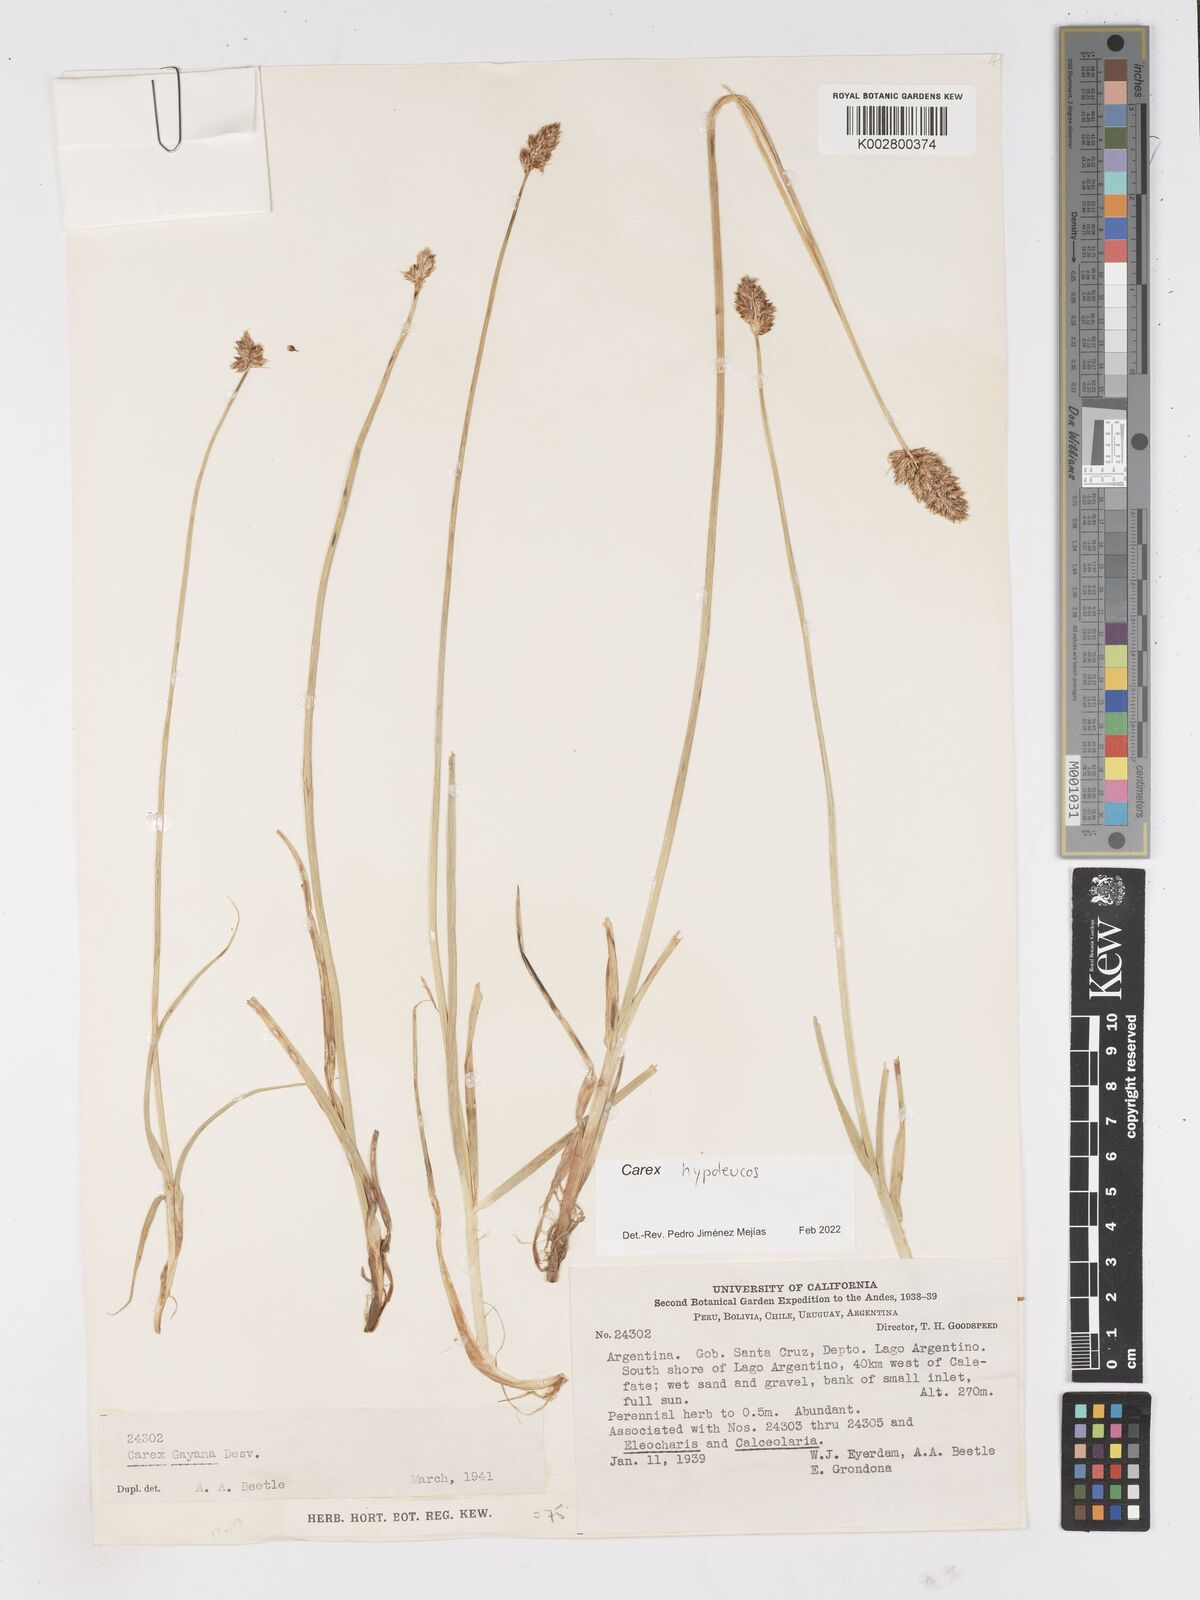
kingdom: Plantae
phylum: Tracheophyta
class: Liliopsida
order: Poales
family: Cyperaceae
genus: Carex
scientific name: Carex macrorrhiza
